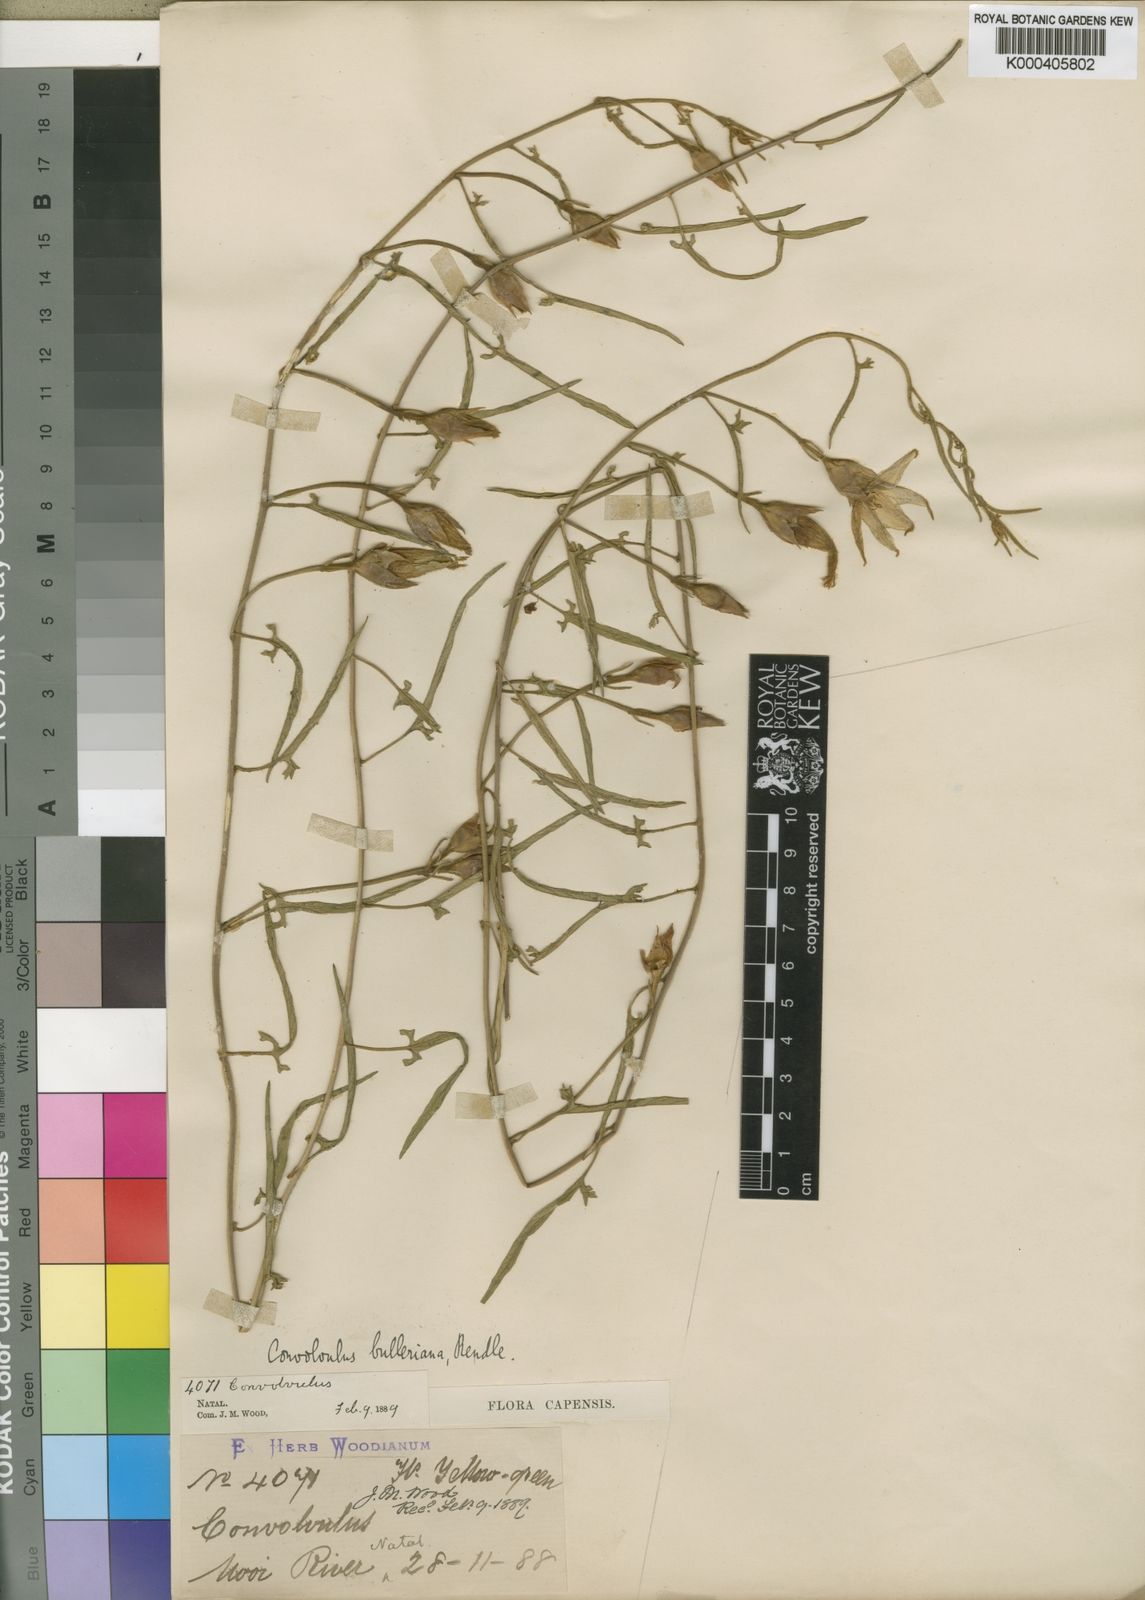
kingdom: Plantae
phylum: Tracheophyta
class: Magnoliopsida
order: Solanales
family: Convolvulaceae
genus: Convolvulus
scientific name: Convolvulus natalensis
